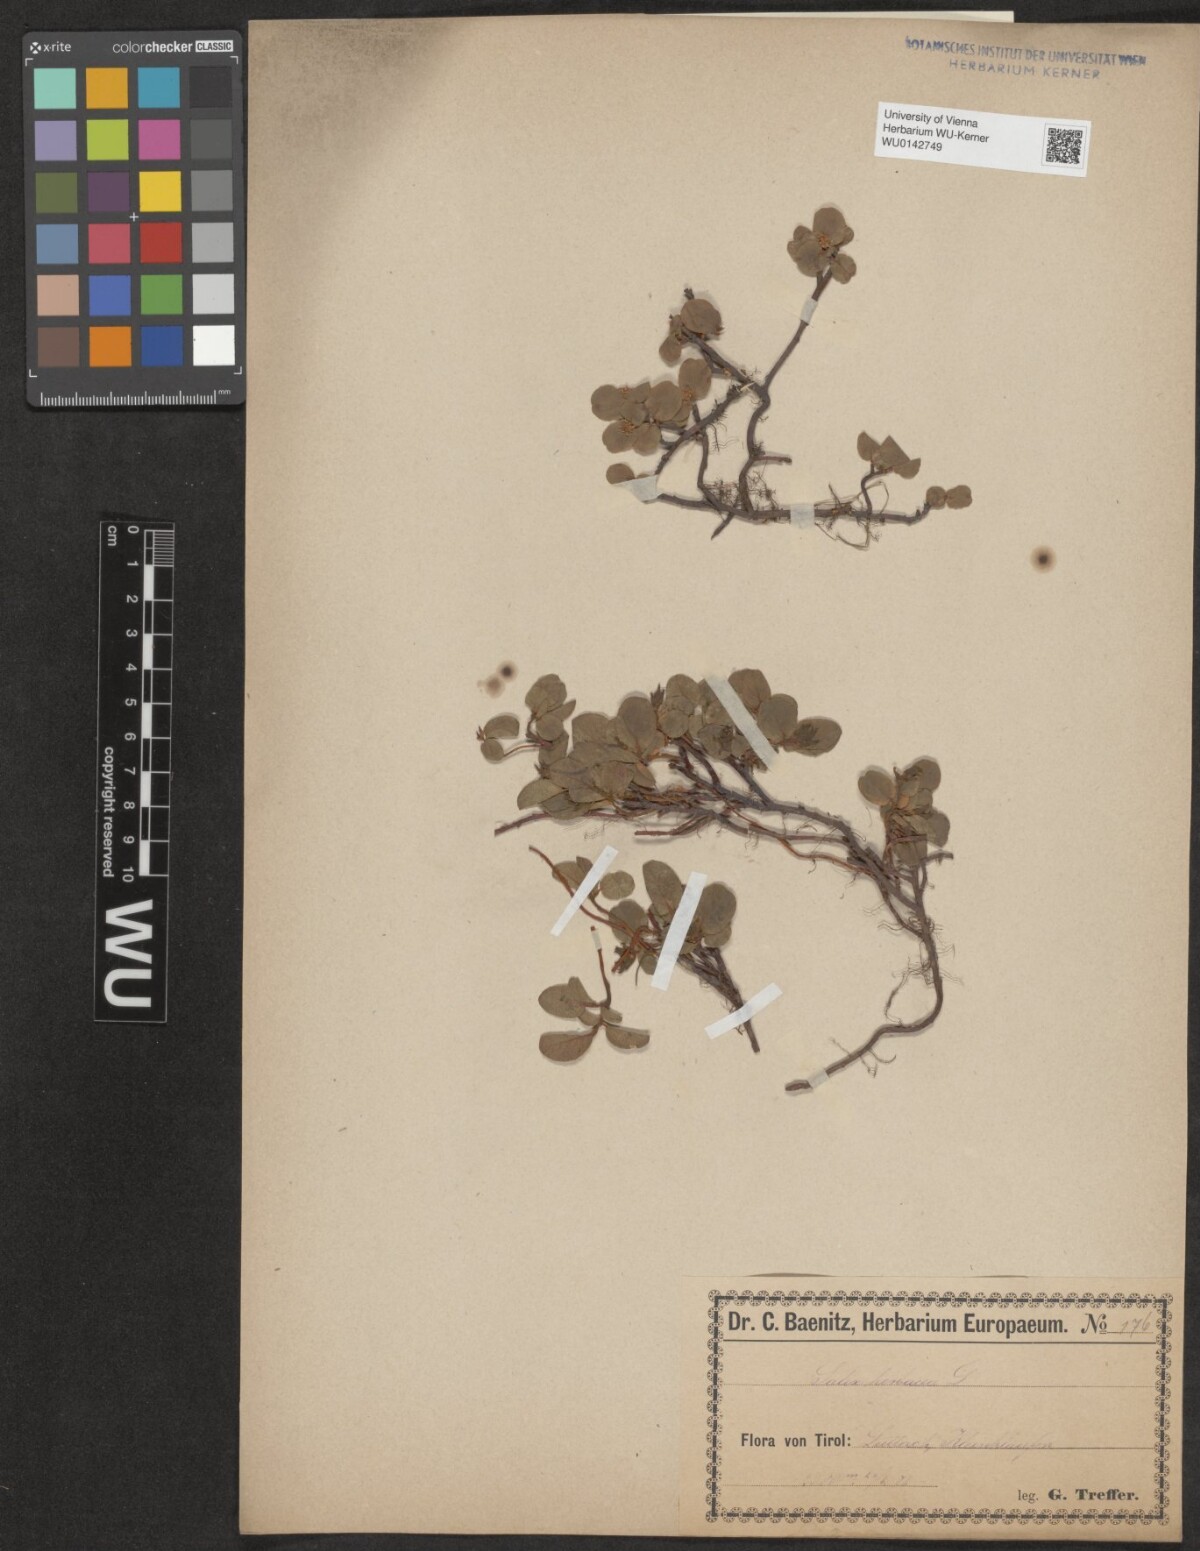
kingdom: Plantae
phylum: Tracheophyta
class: Magnoliopsida
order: Malpighiales
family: Salicaceae
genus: Salix
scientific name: Salix herbacea
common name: Dwarf willow
